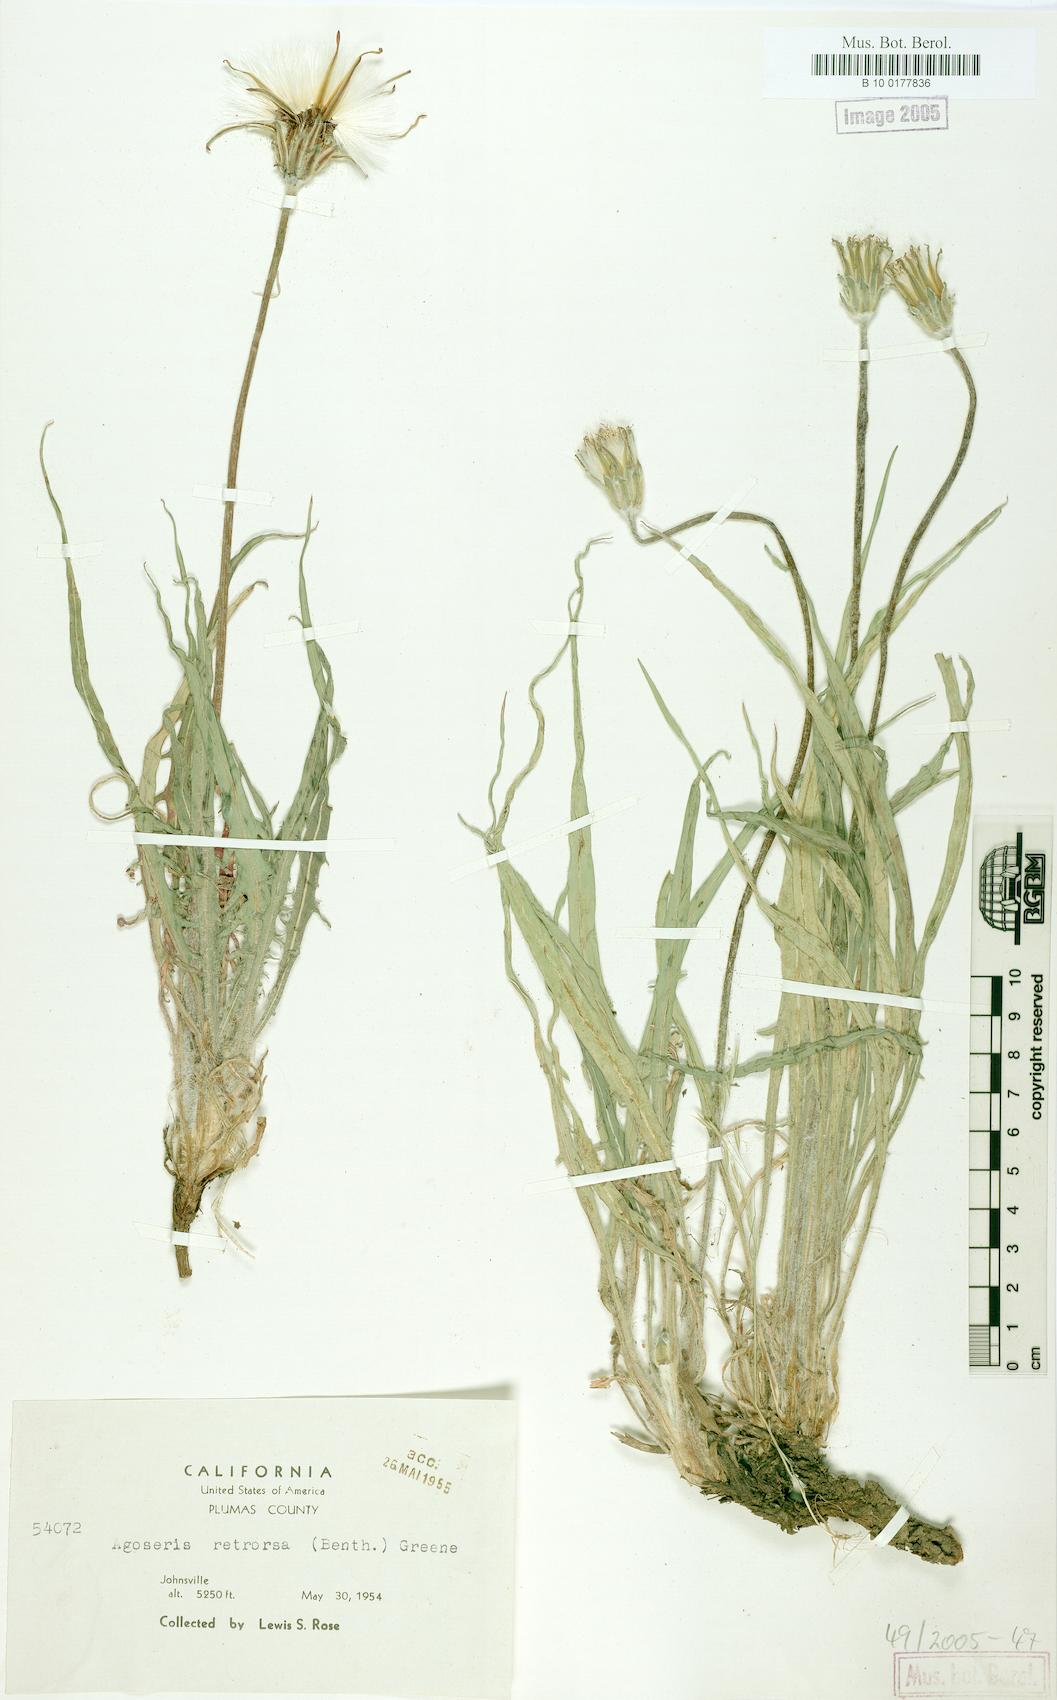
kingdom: Plantae
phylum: Tracheophyta
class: Magnoliopsida
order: Asterales
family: Asteraceae
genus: Agoseris
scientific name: Agoseris retrorsa
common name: Spearleaf agoseris
